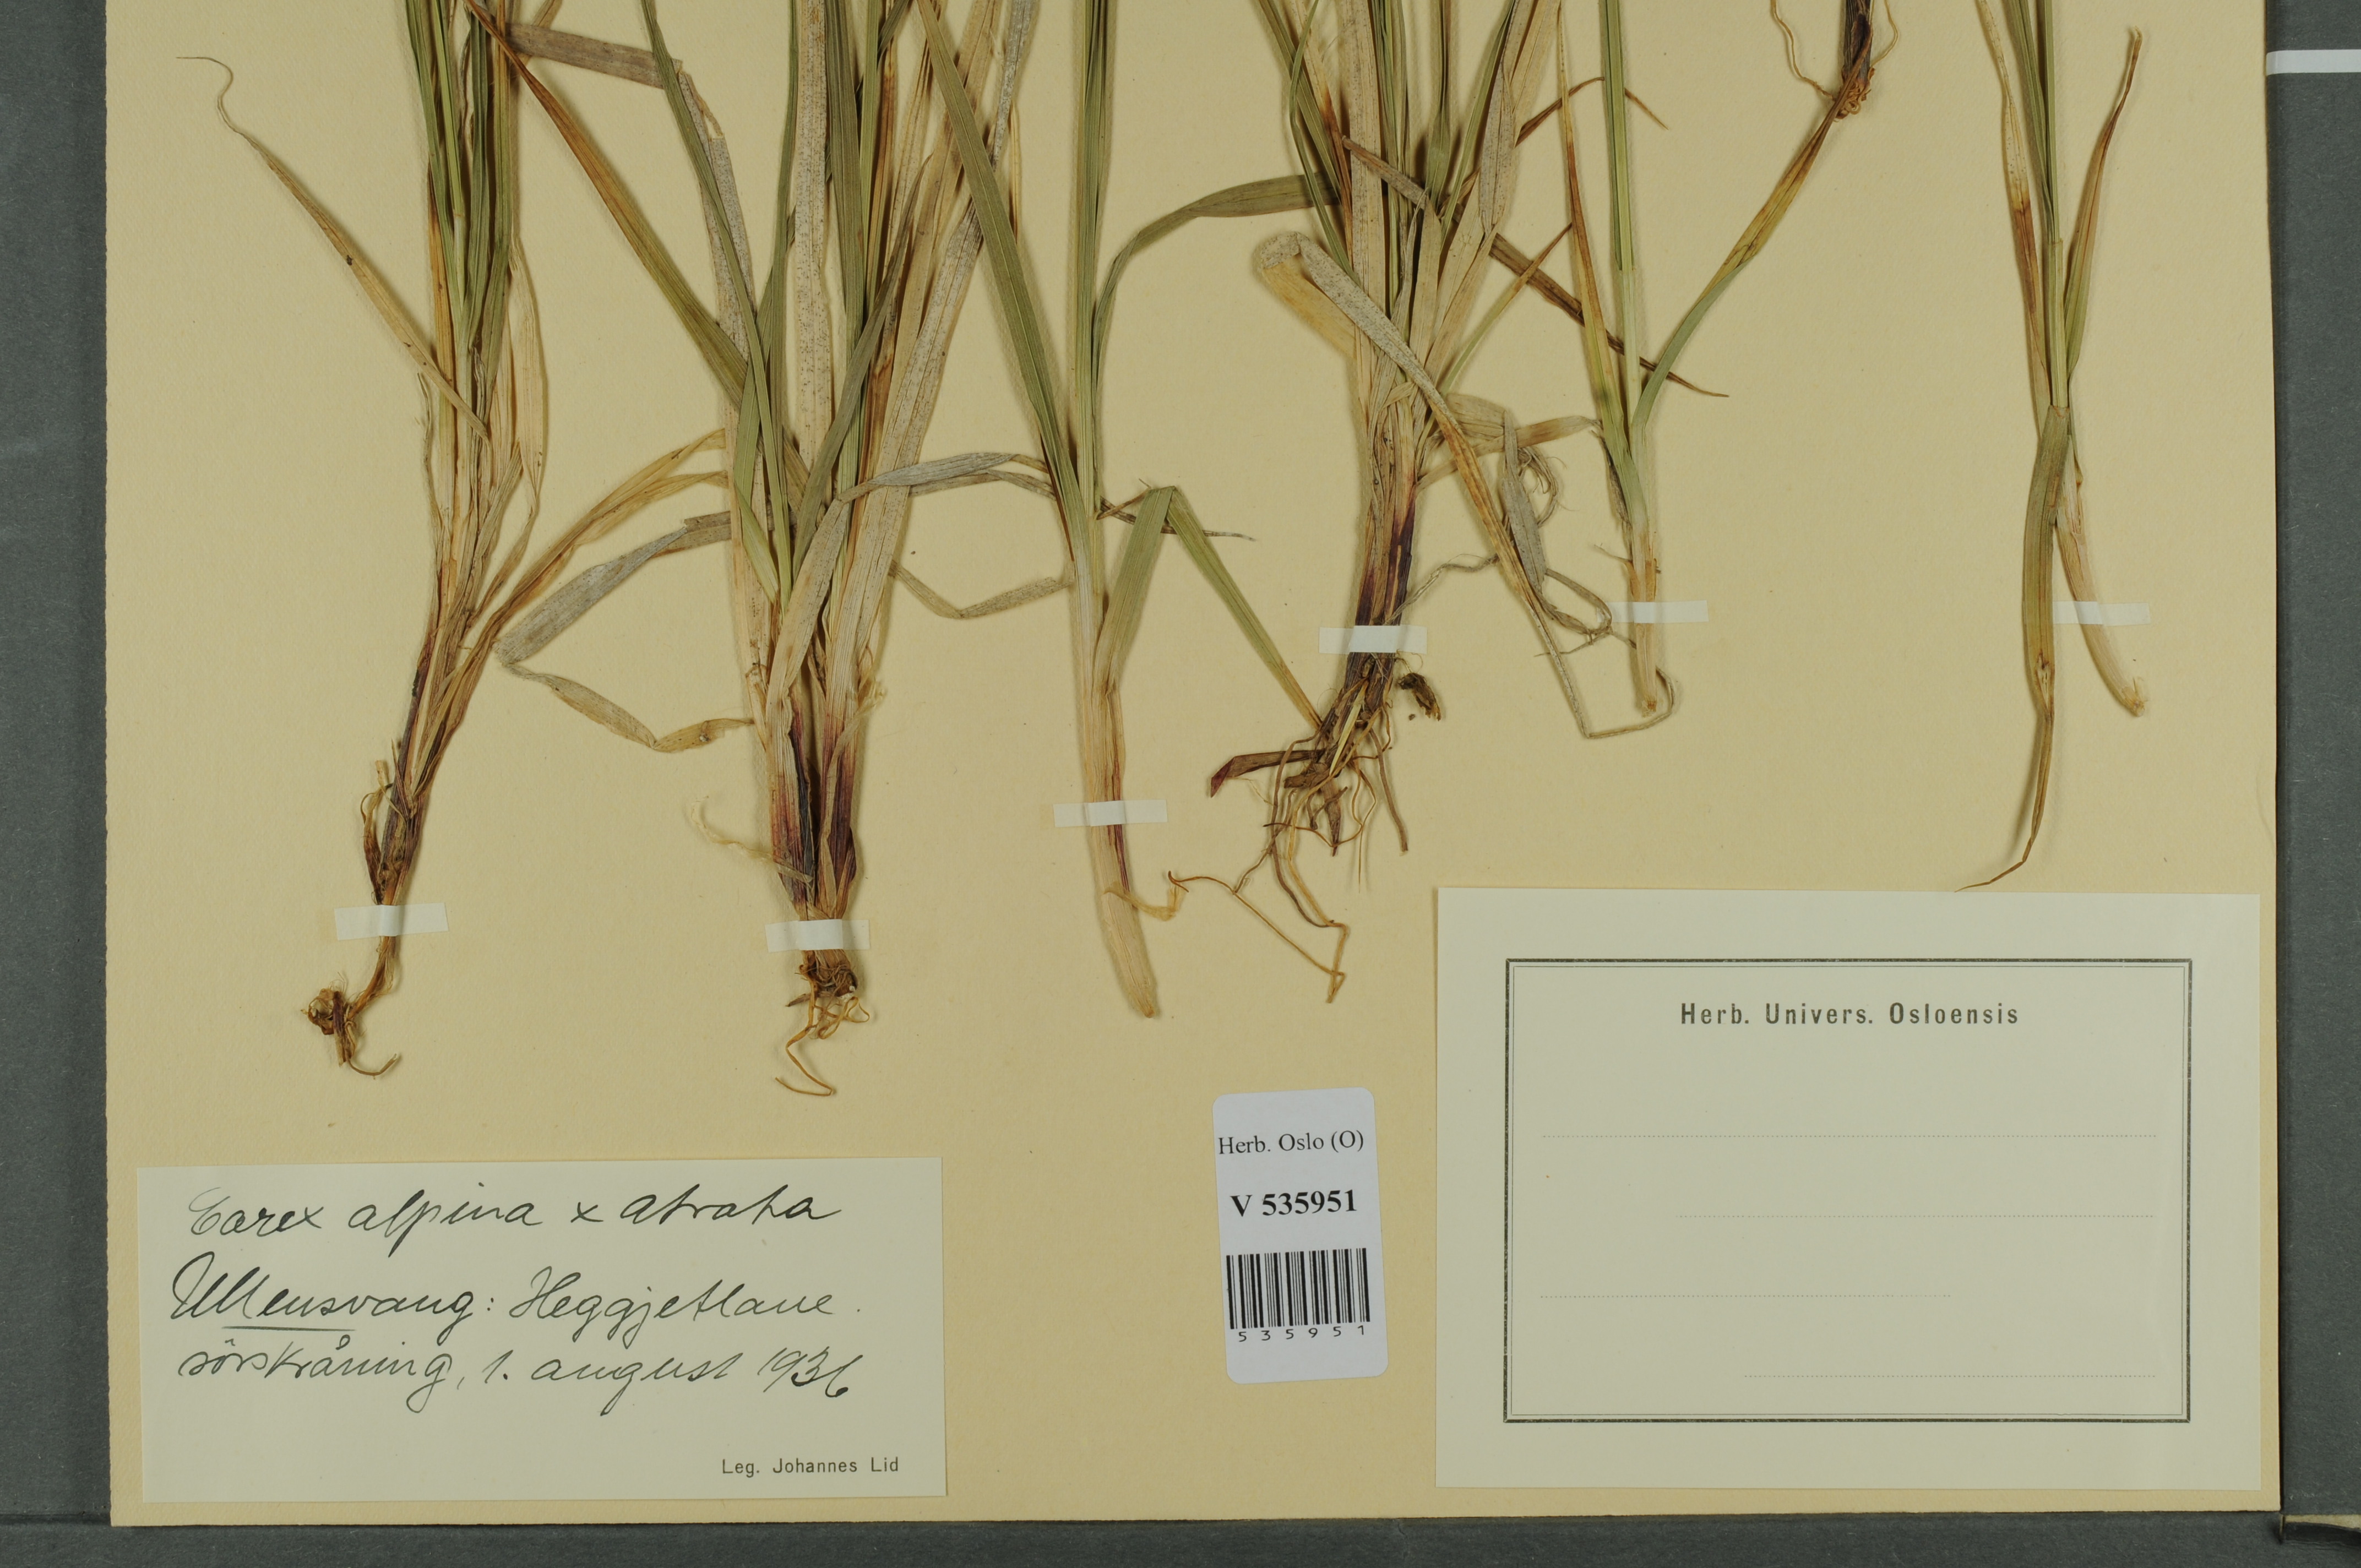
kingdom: Plantae
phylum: Tracheophyta
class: Liliopsida
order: Poales
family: Cyperaceae
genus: Carex
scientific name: Carex
